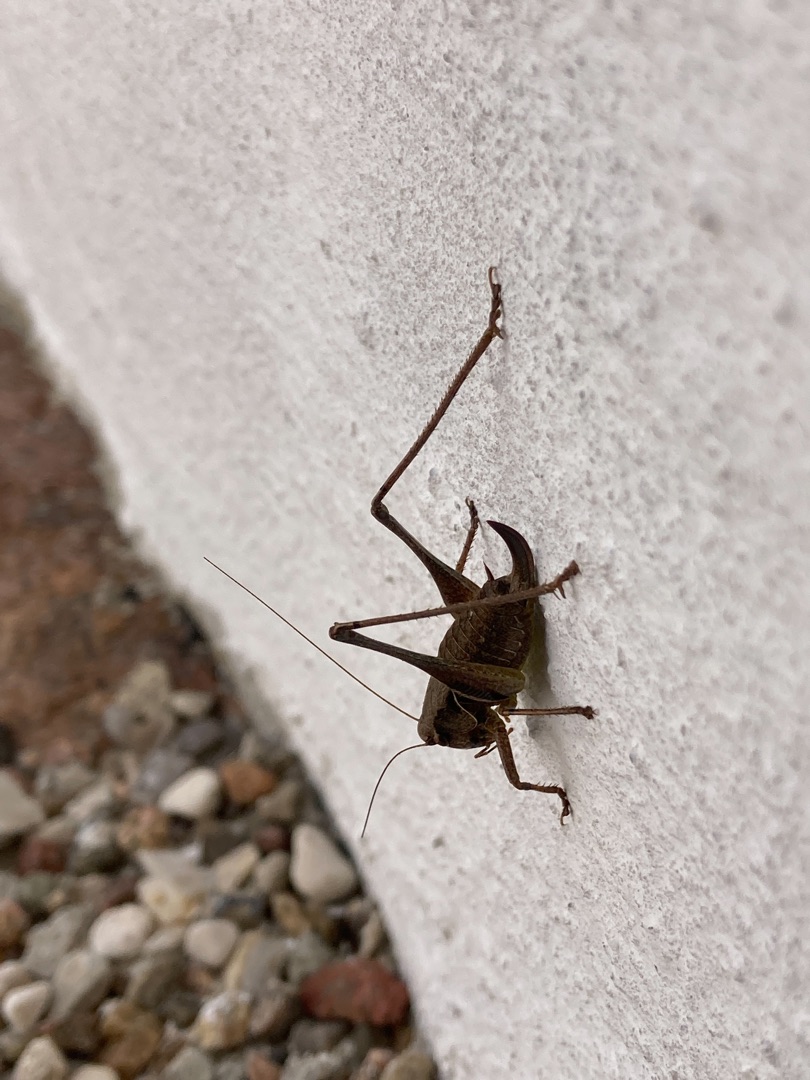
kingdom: Animalia
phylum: Arthropoda
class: Insecta
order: Orthoptera
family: Tettigoniidae
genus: Pholidoptera
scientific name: Pholidoptera griseoaptera
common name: Buskgræshoppe
